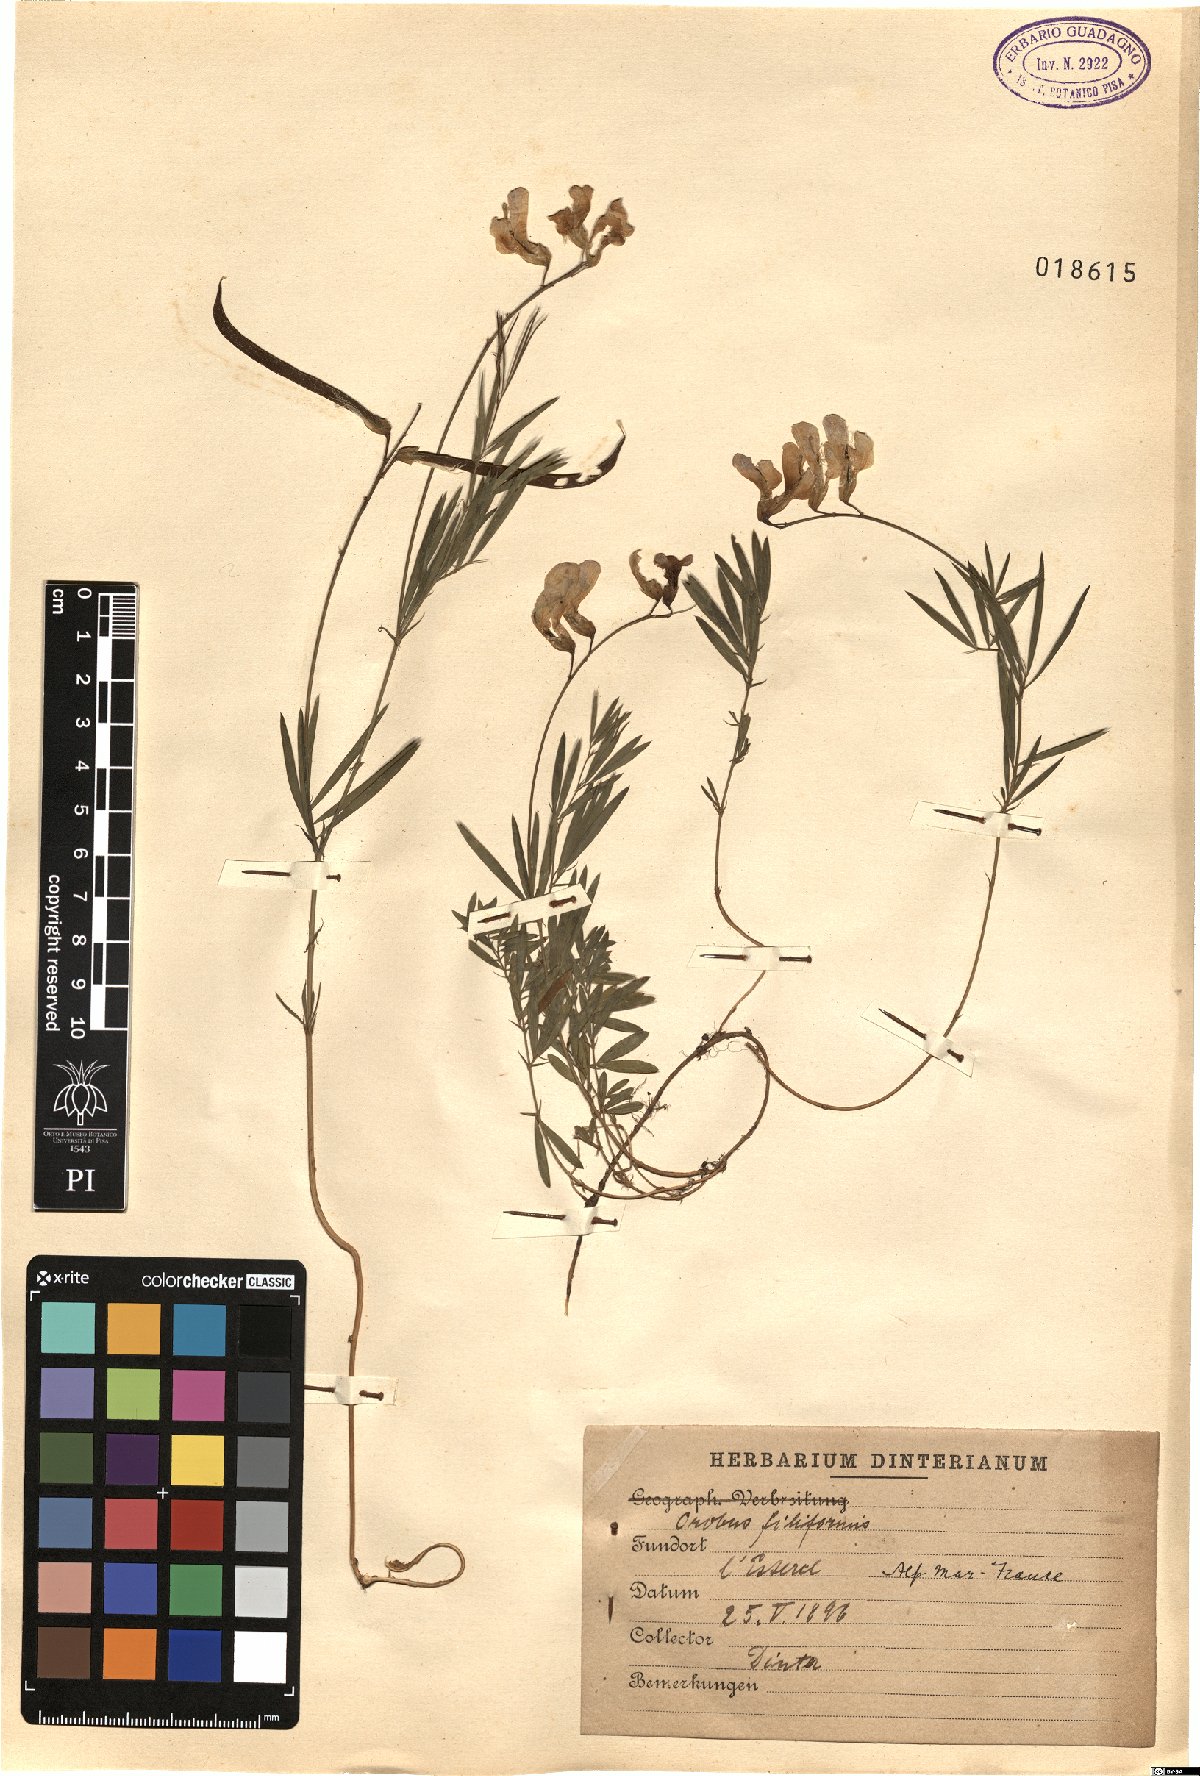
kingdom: Plantae
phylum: Tracheophyta
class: Magnoliopsida
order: Fabales
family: Fabaceae
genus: Lathyrus
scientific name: Lathyrus
